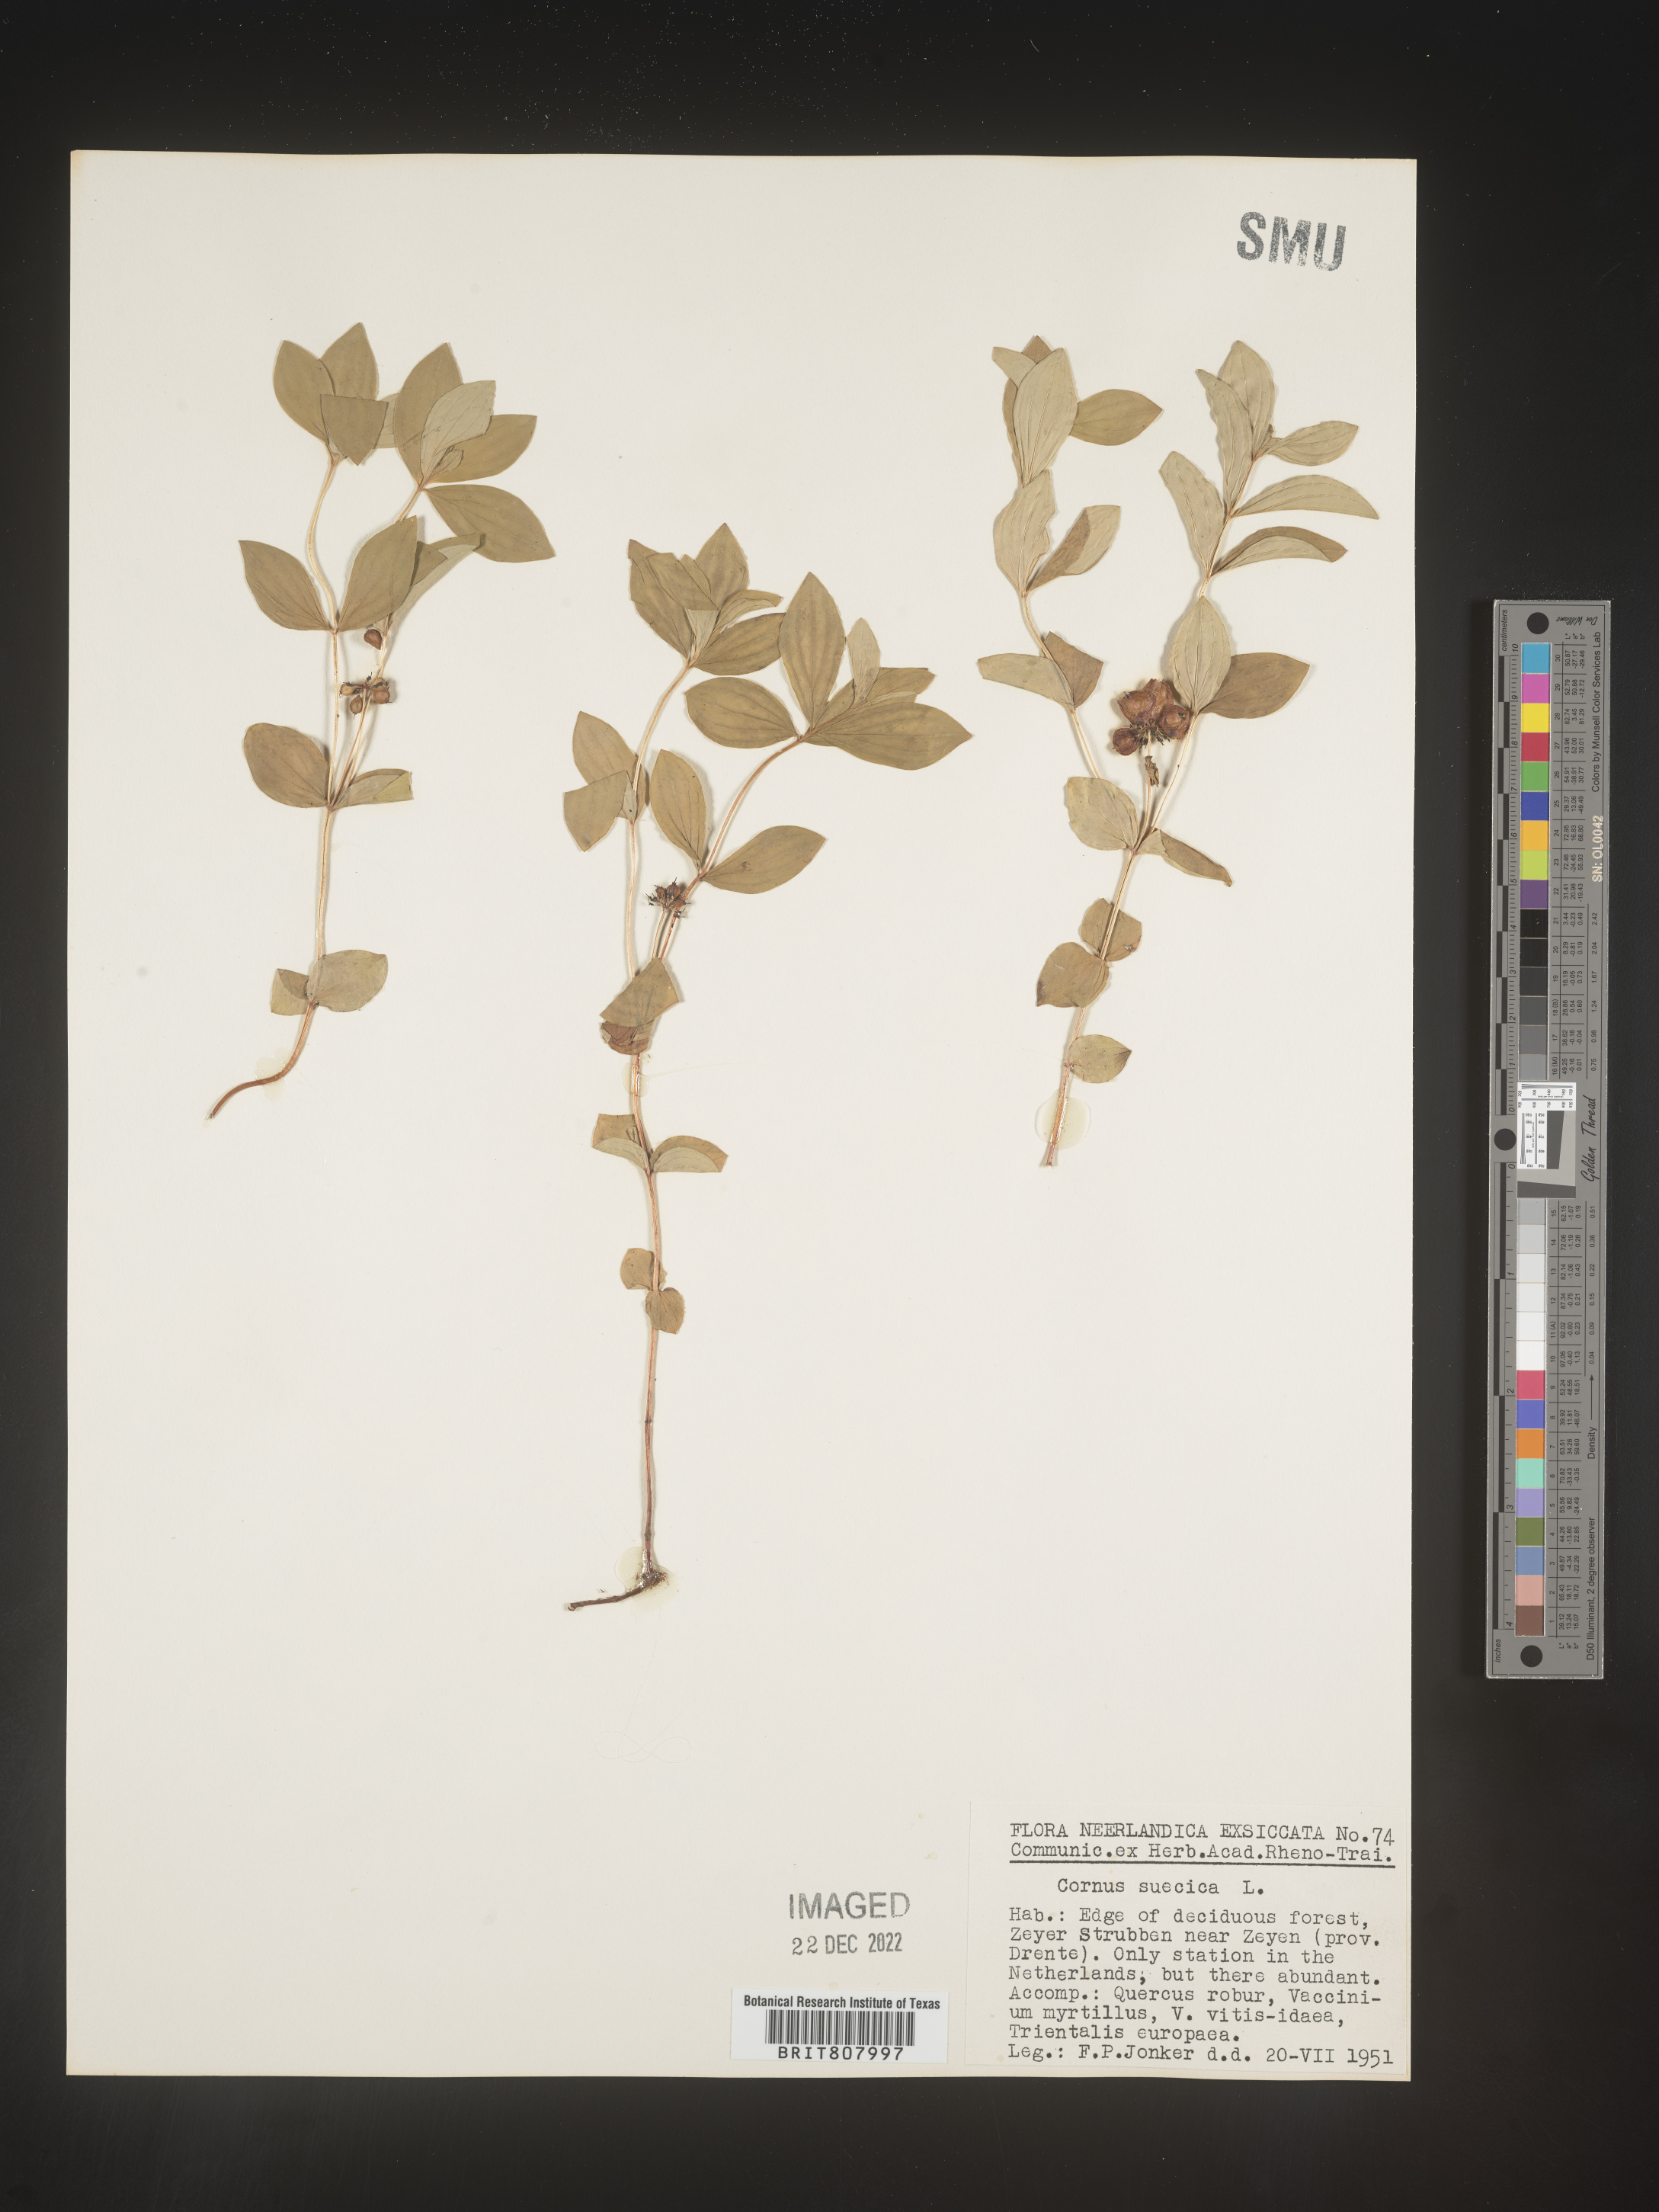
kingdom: Plantae
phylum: Tracheophyta
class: Magnoliopsida
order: Cornales
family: Cornaceae
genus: Cornus
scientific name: Cornus
